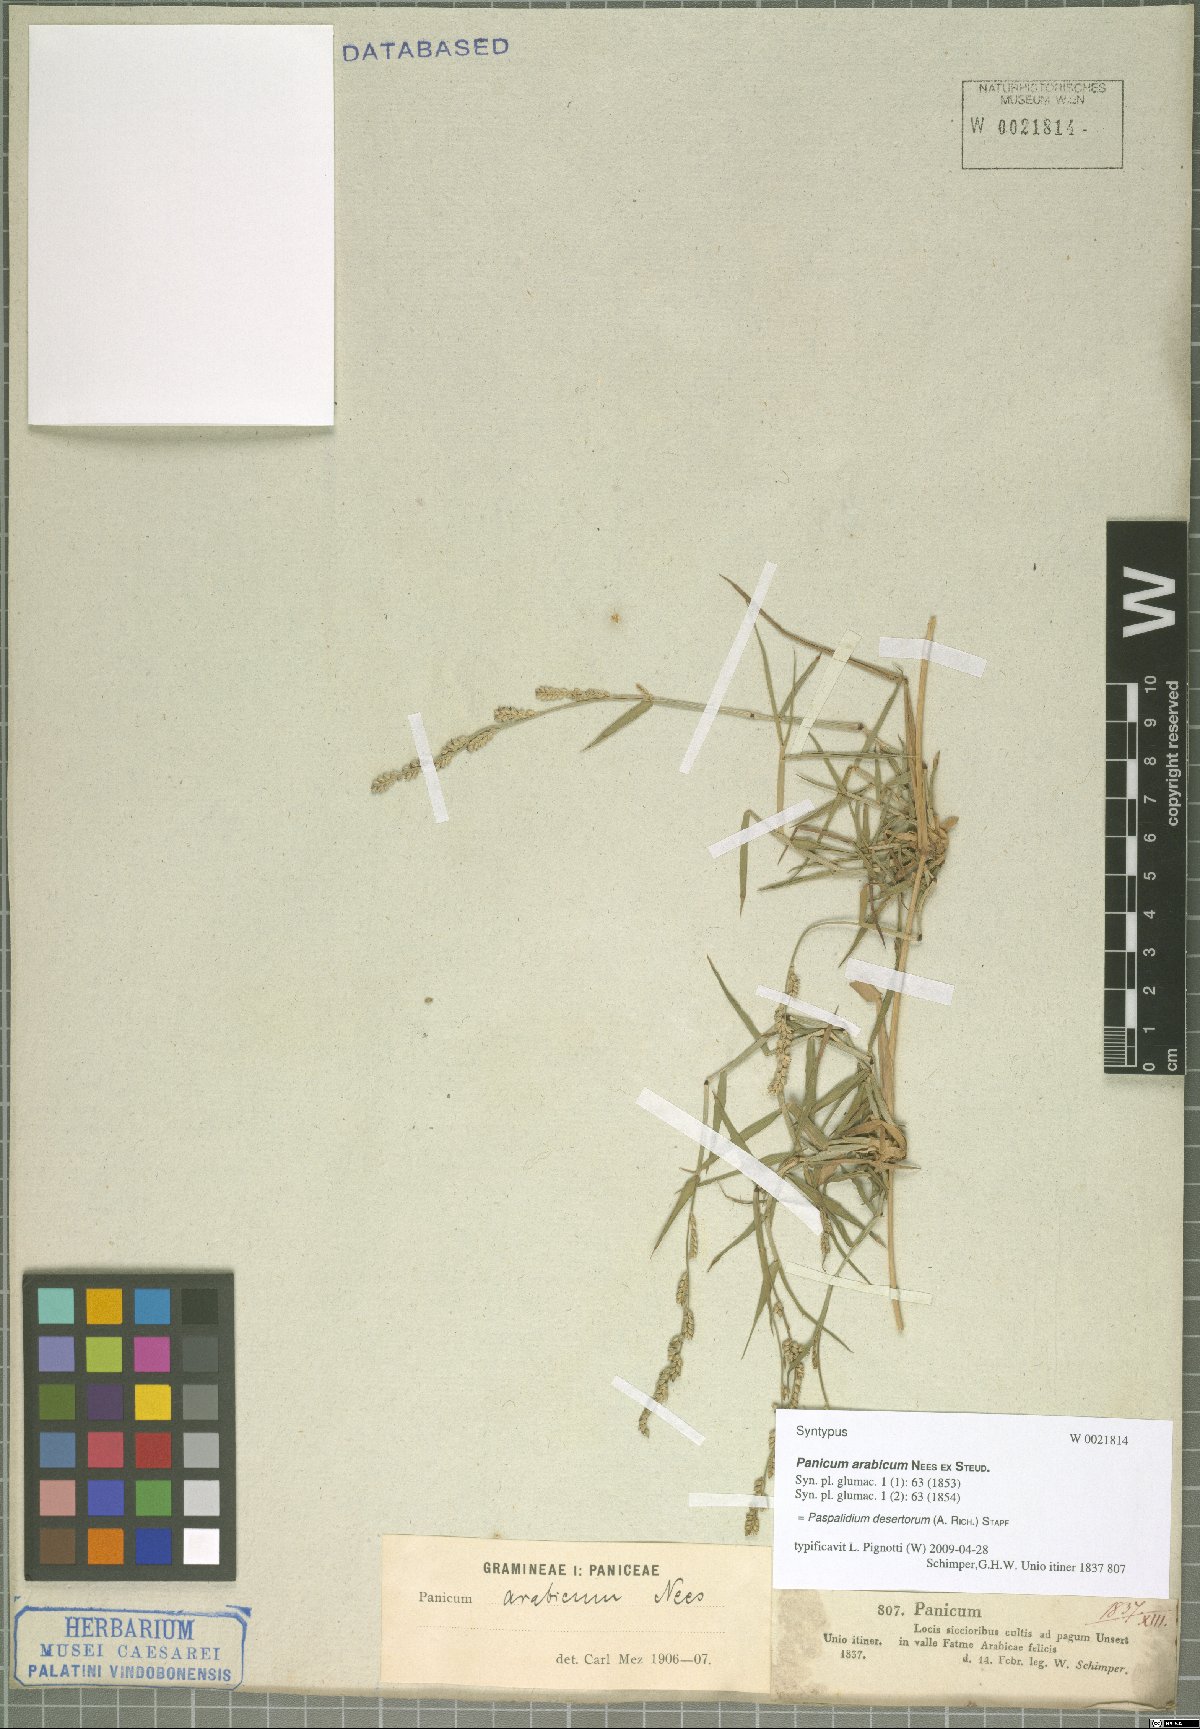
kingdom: Plantae
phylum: Tracheophyta
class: Liliopsida
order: Poales
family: Poaceae
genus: Setaria
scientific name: Setaria desertorum
